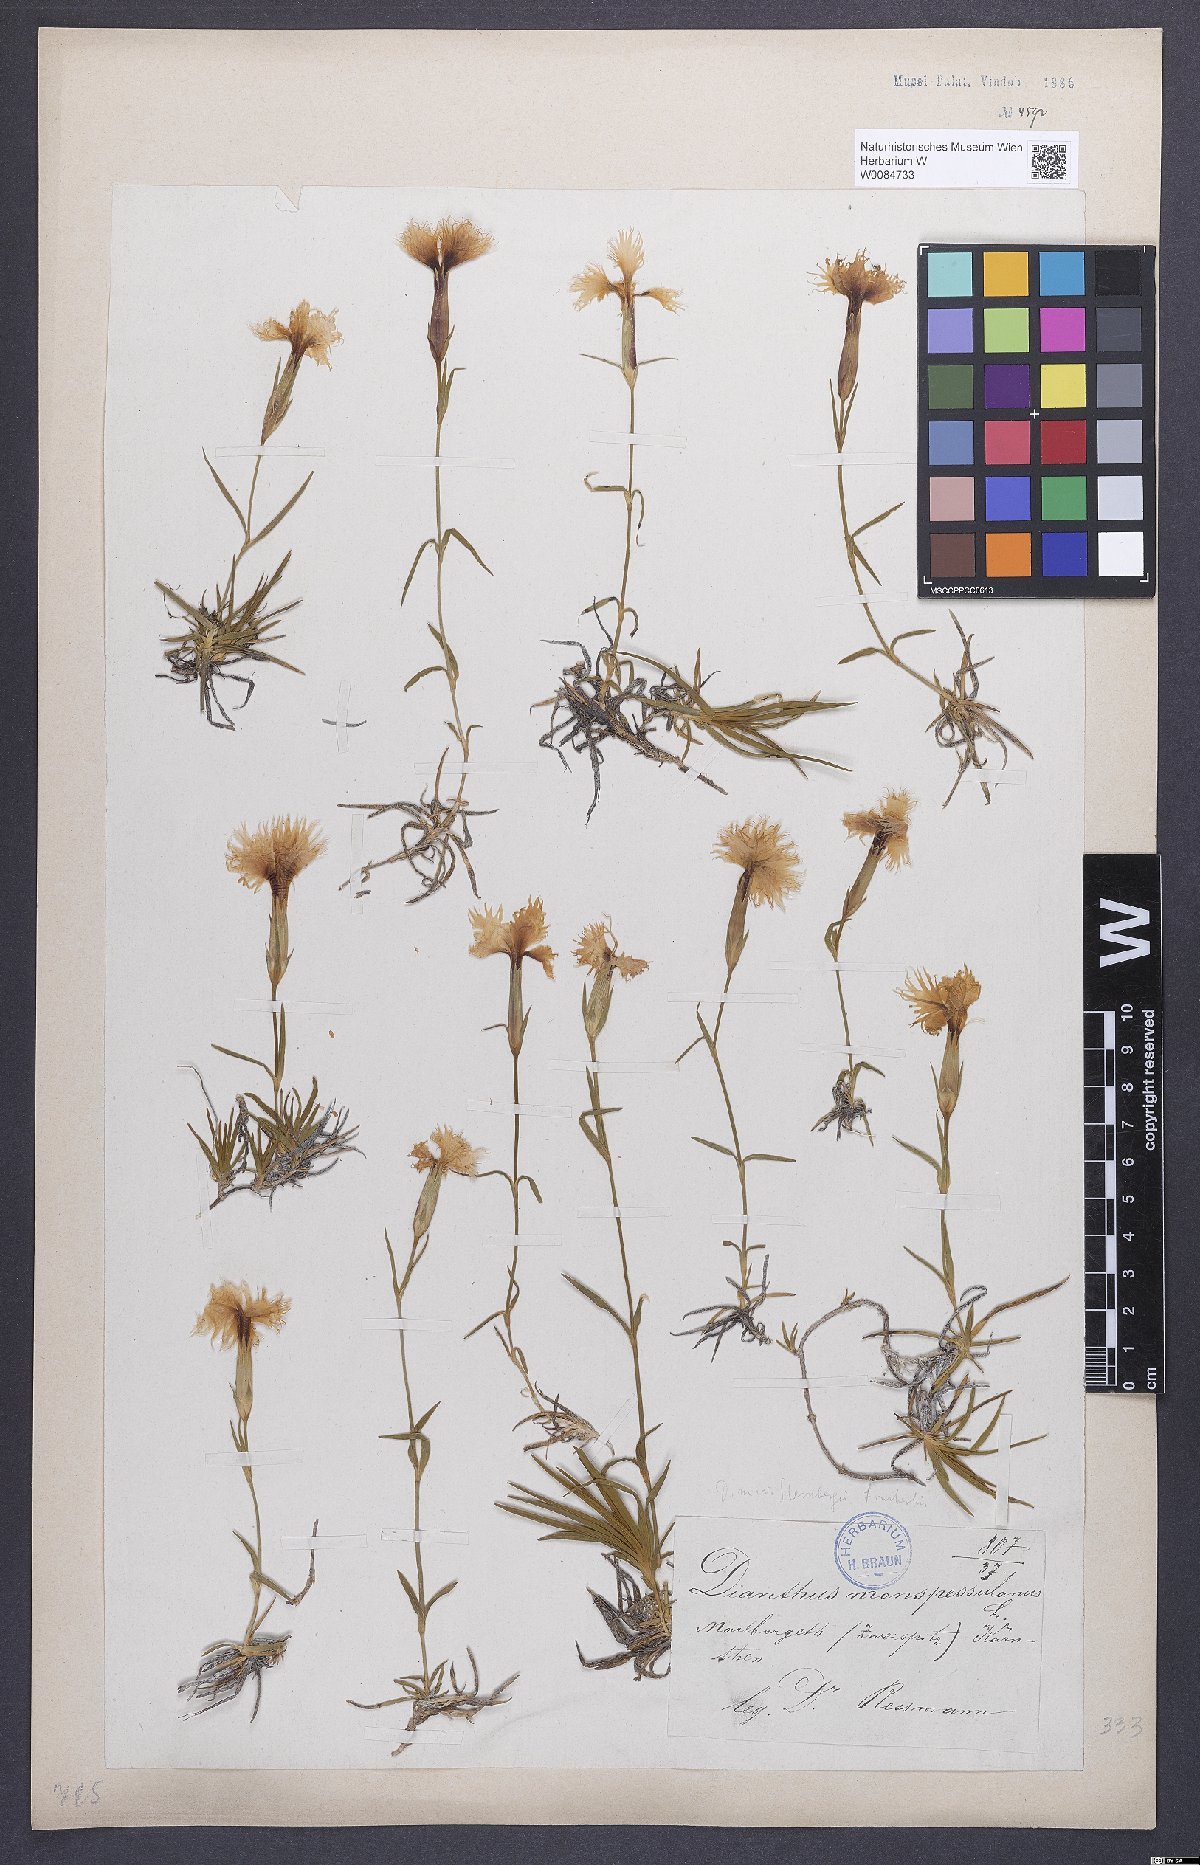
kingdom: Plantae
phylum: Tracheophyta
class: Magnoliopsida
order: Caryophyllales
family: Caryophyllaceae
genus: Dianthus
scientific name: Dianthus hyssopifolius
